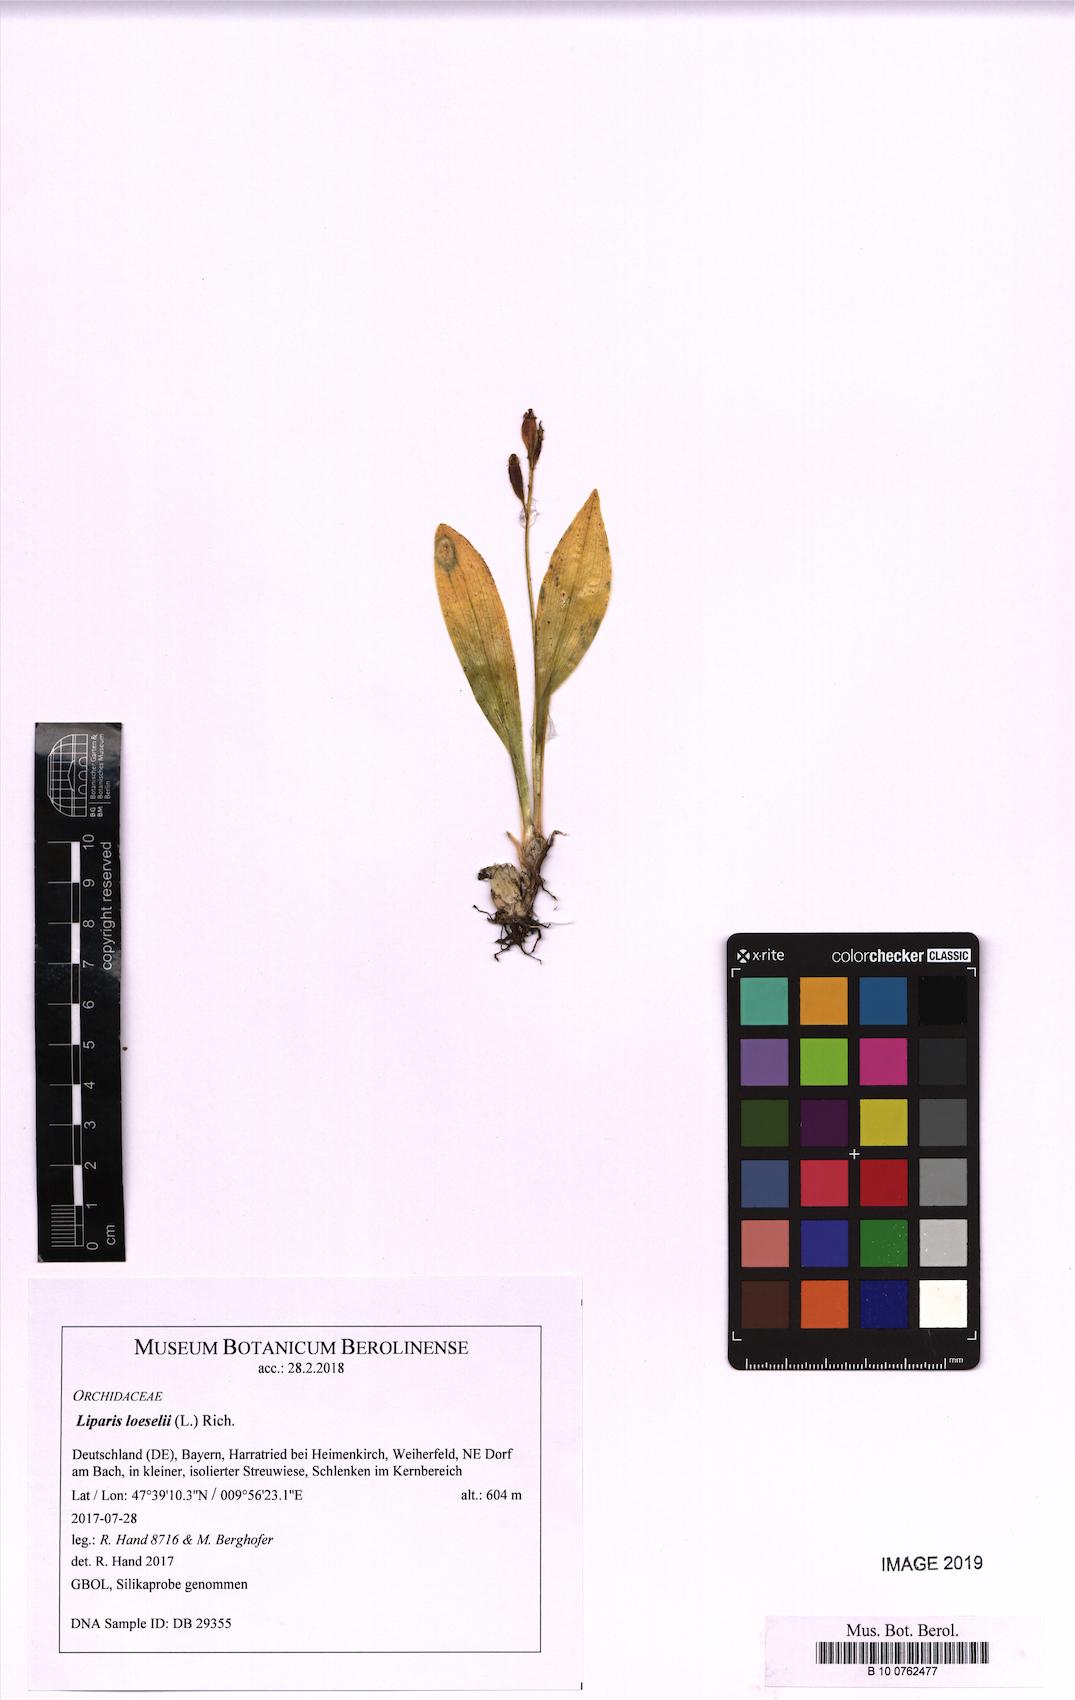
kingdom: Animalia
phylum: Arthropoda
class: Insecta
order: Coleoptera
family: Curculionidae
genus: Liparis
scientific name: Liparis loeselii
